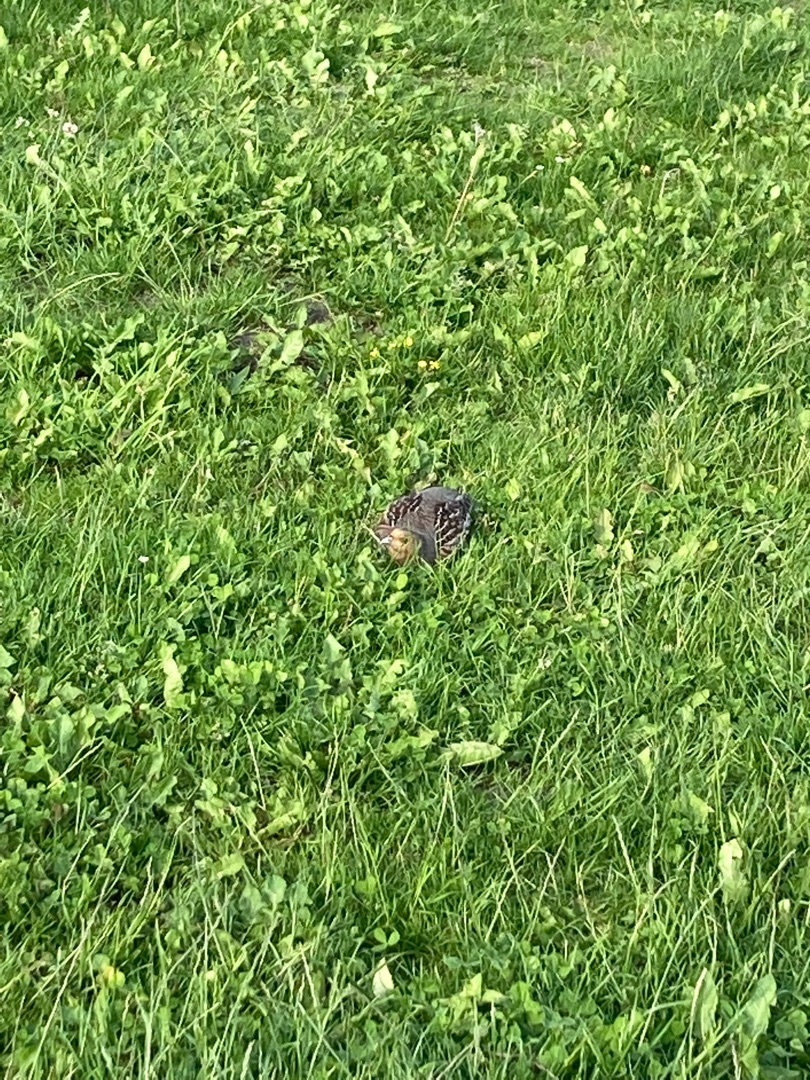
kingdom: Animalia
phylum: Chordata
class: Aves
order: Galliformes
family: Phasianidae
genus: Perdix
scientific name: Perdix perdix
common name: Agerhøne
